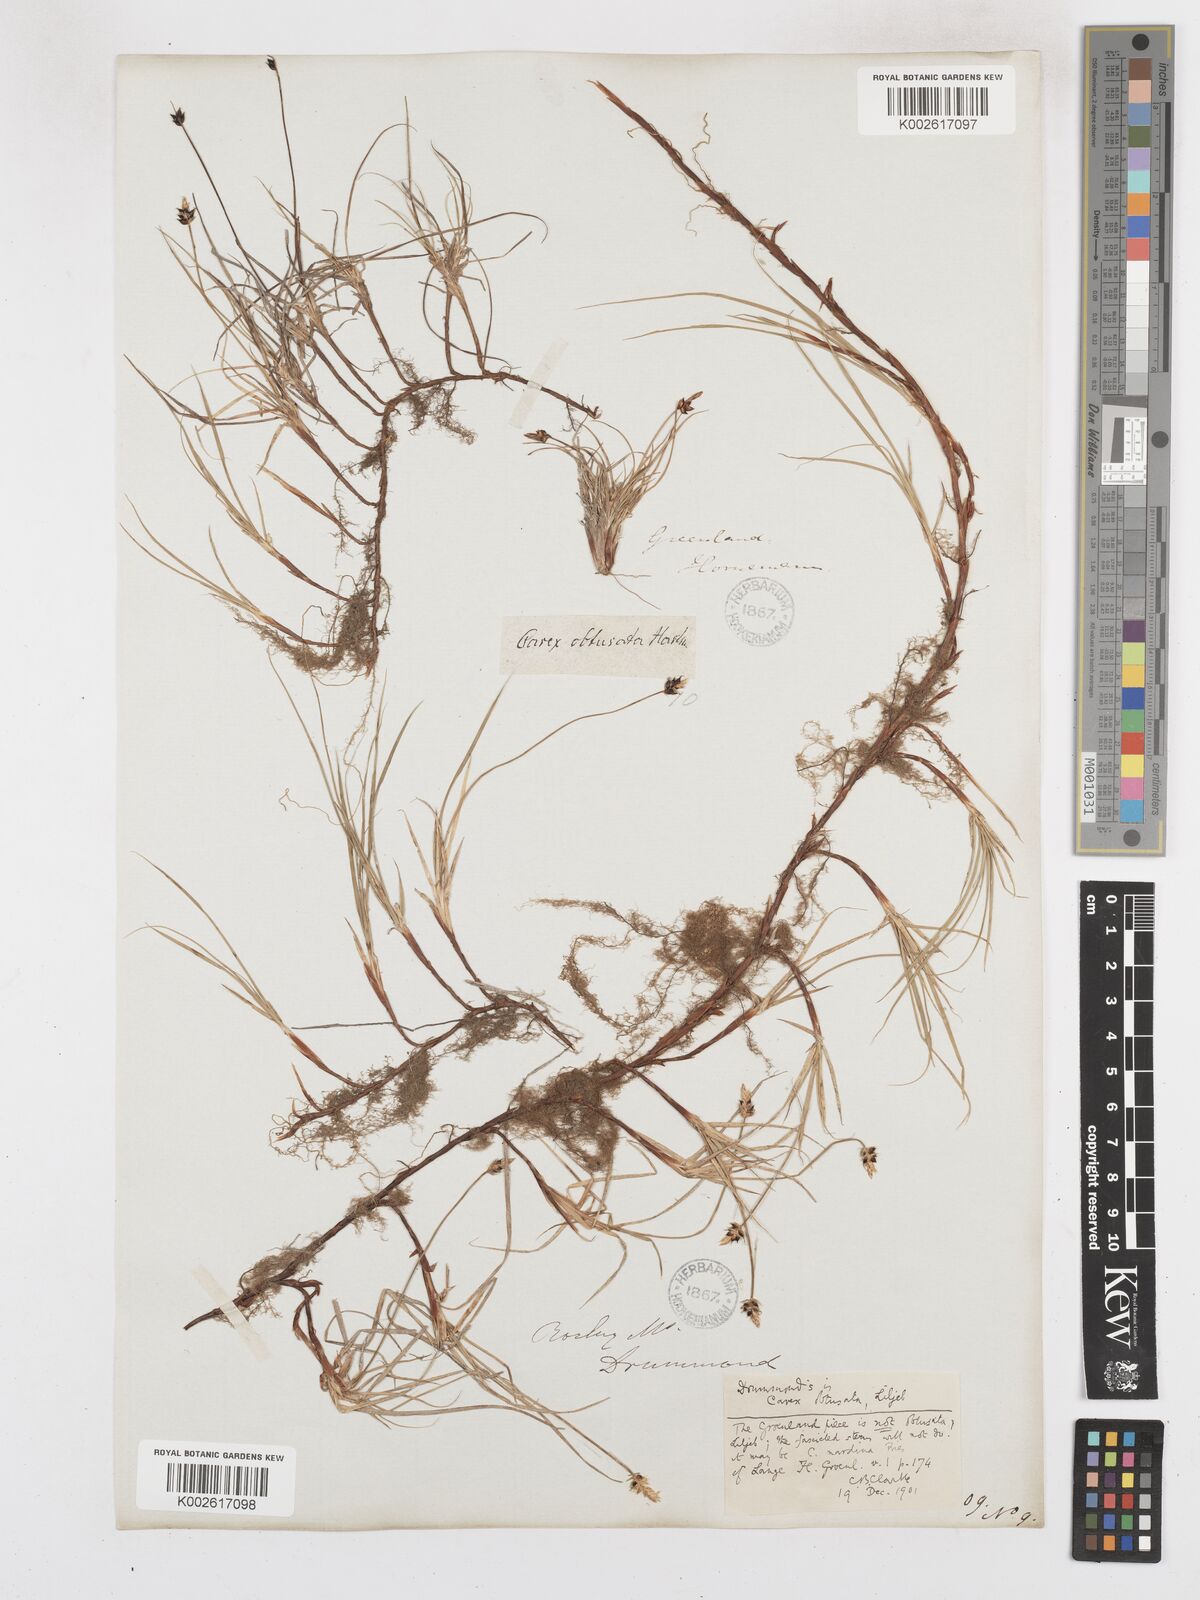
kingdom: Plantae
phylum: Tracheophyta
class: Liliopsida
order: Poales
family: Cyperaceae
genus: Carex
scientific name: Carex obtusata
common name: Blunt sedge
